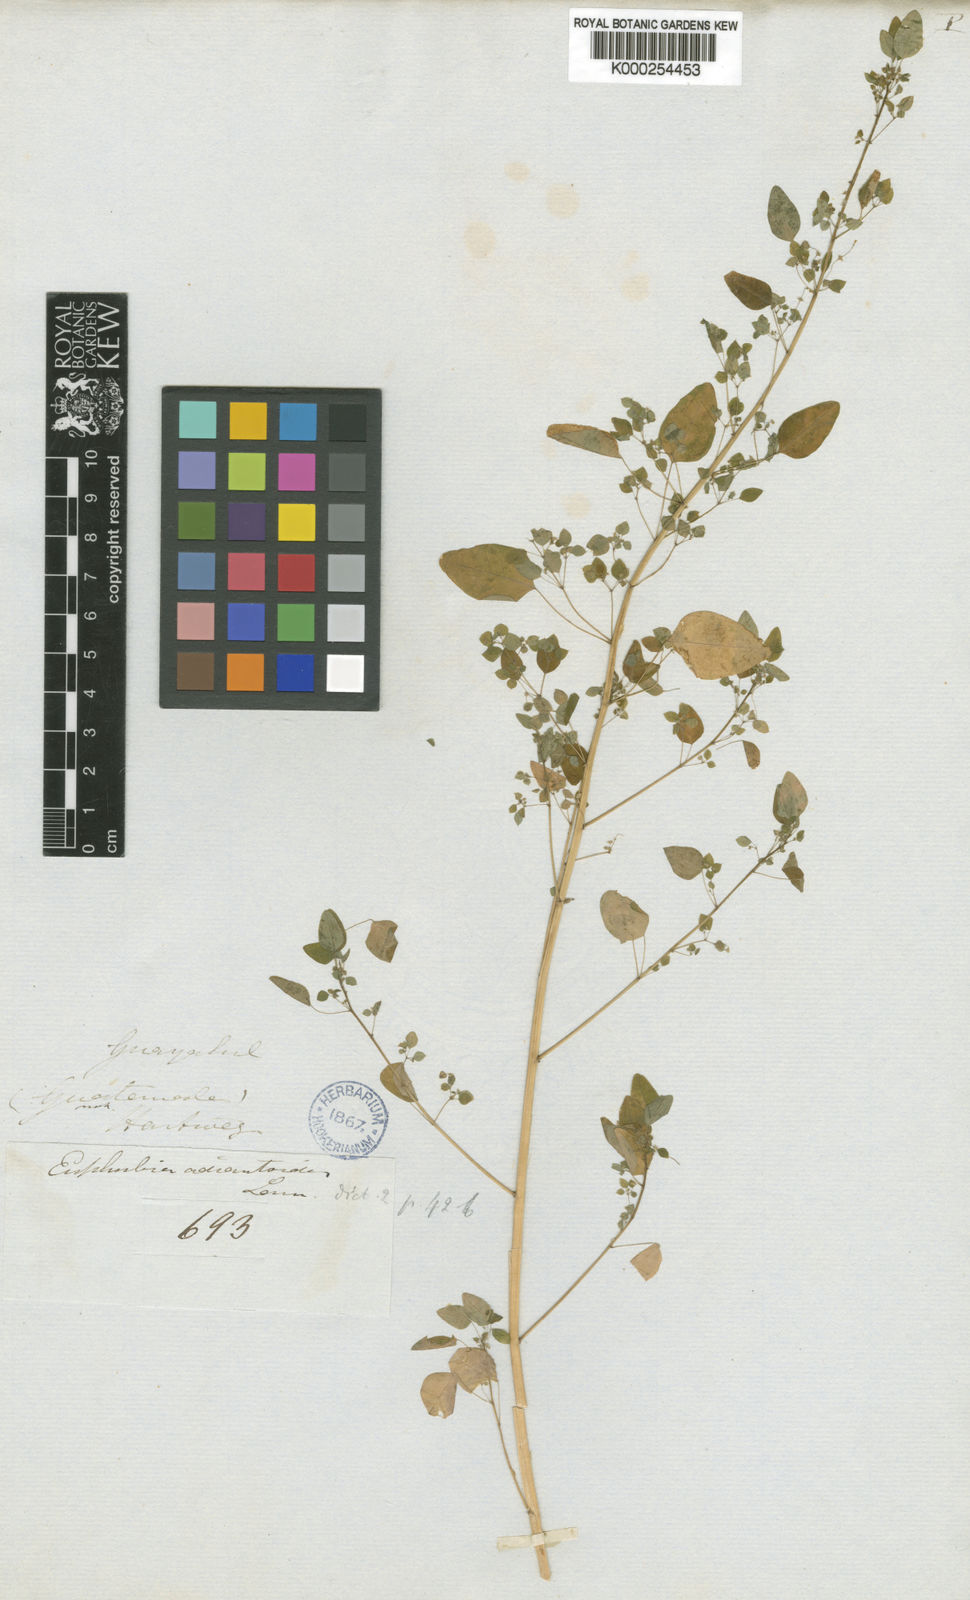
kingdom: Plantae
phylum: Tracheophyta
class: Magnoliopsida
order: Malpighiales
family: Euphorbiaceae
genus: Euphorbia
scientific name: Euphorbia adiantoides
